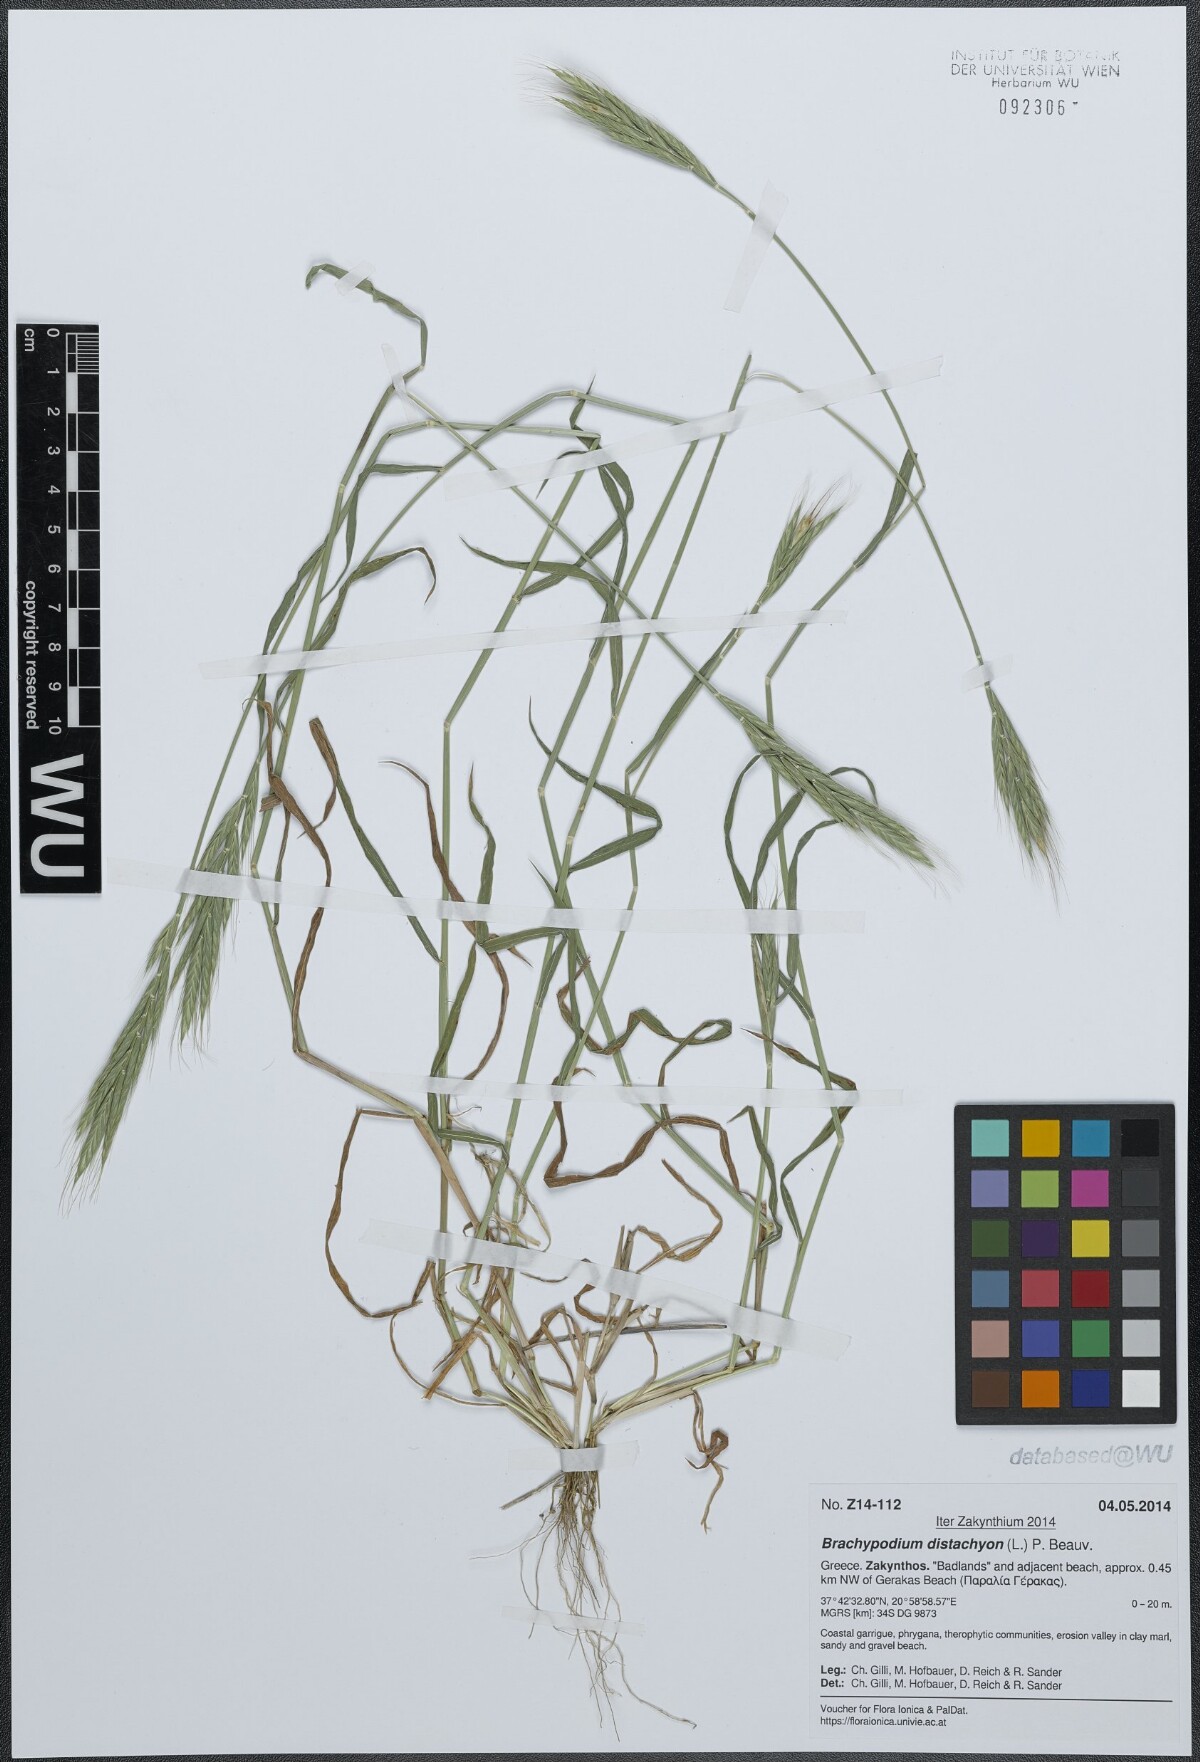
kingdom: Plantae
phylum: Tracheophyta
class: Liliopsida
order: Poales
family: Poaceae
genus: Brachypodium
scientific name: Brachypodium distachyon
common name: Stiff brome
